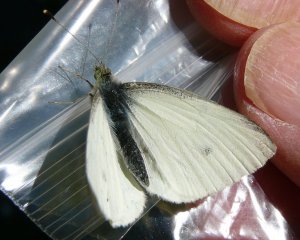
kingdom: Animalia
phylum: Arthropoda
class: Insecta
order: Lepidoptera
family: Pieridae
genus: Pieris
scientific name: Pieris rapae
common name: Cabbage White
